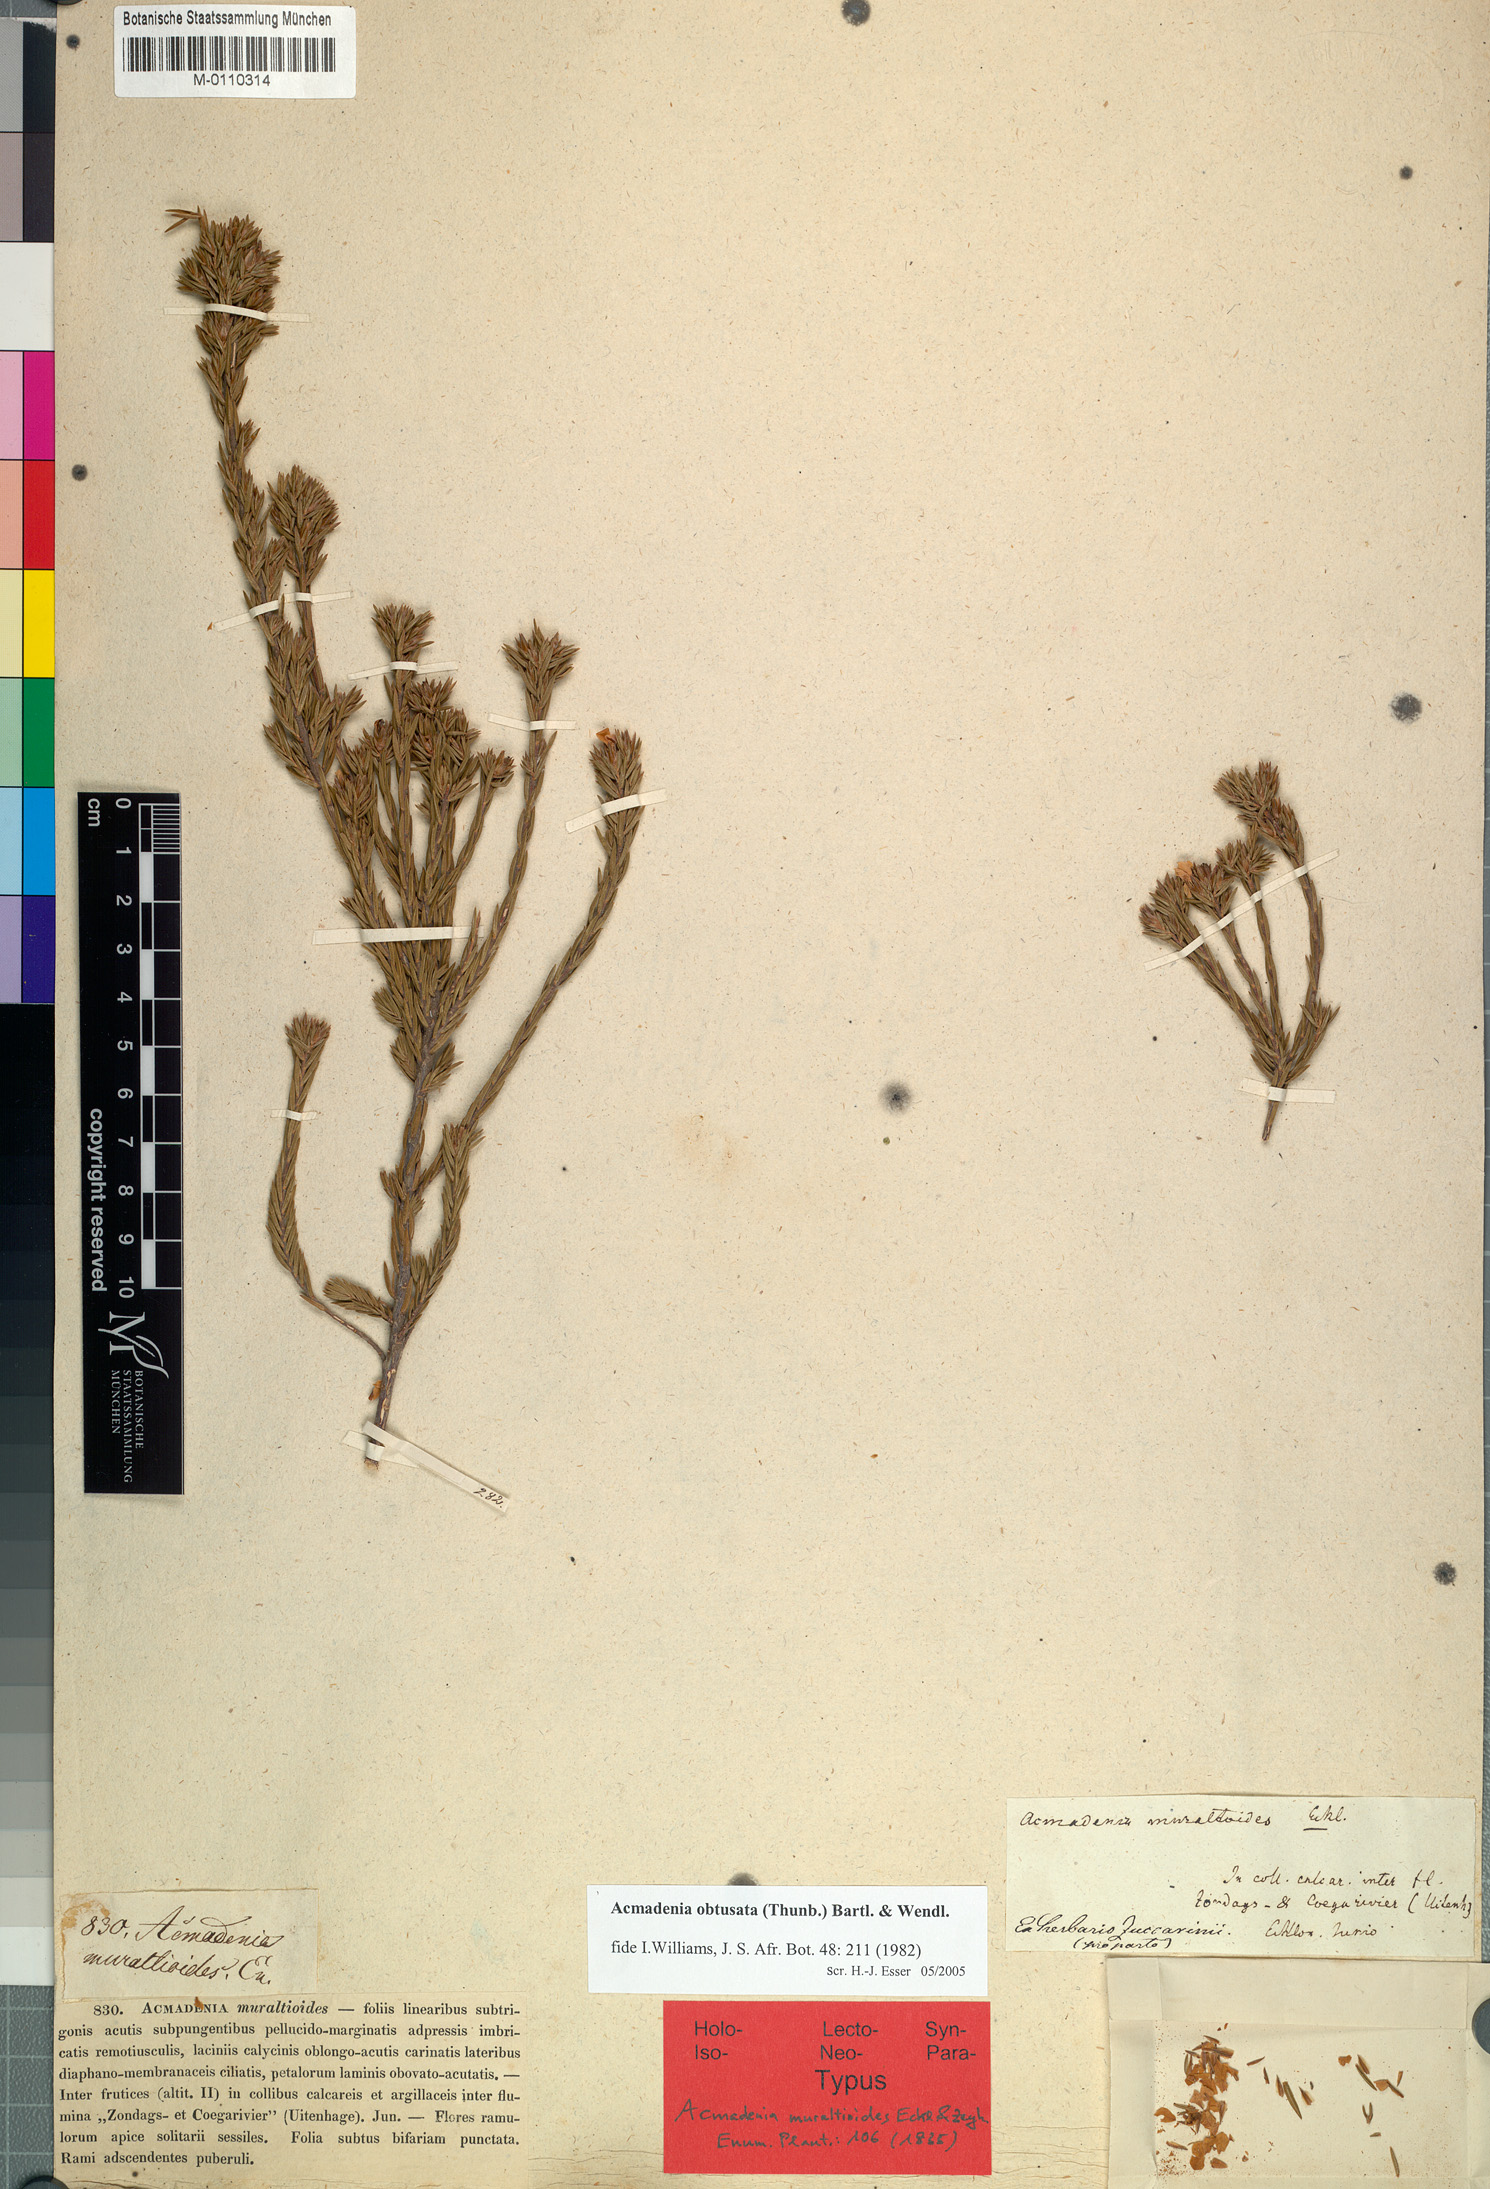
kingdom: Plantae
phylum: Tracheophyta
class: Magnoliopsida
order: Sapindales
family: Rutaceae
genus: Acmadenia
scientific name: Acmadenia obtusata
